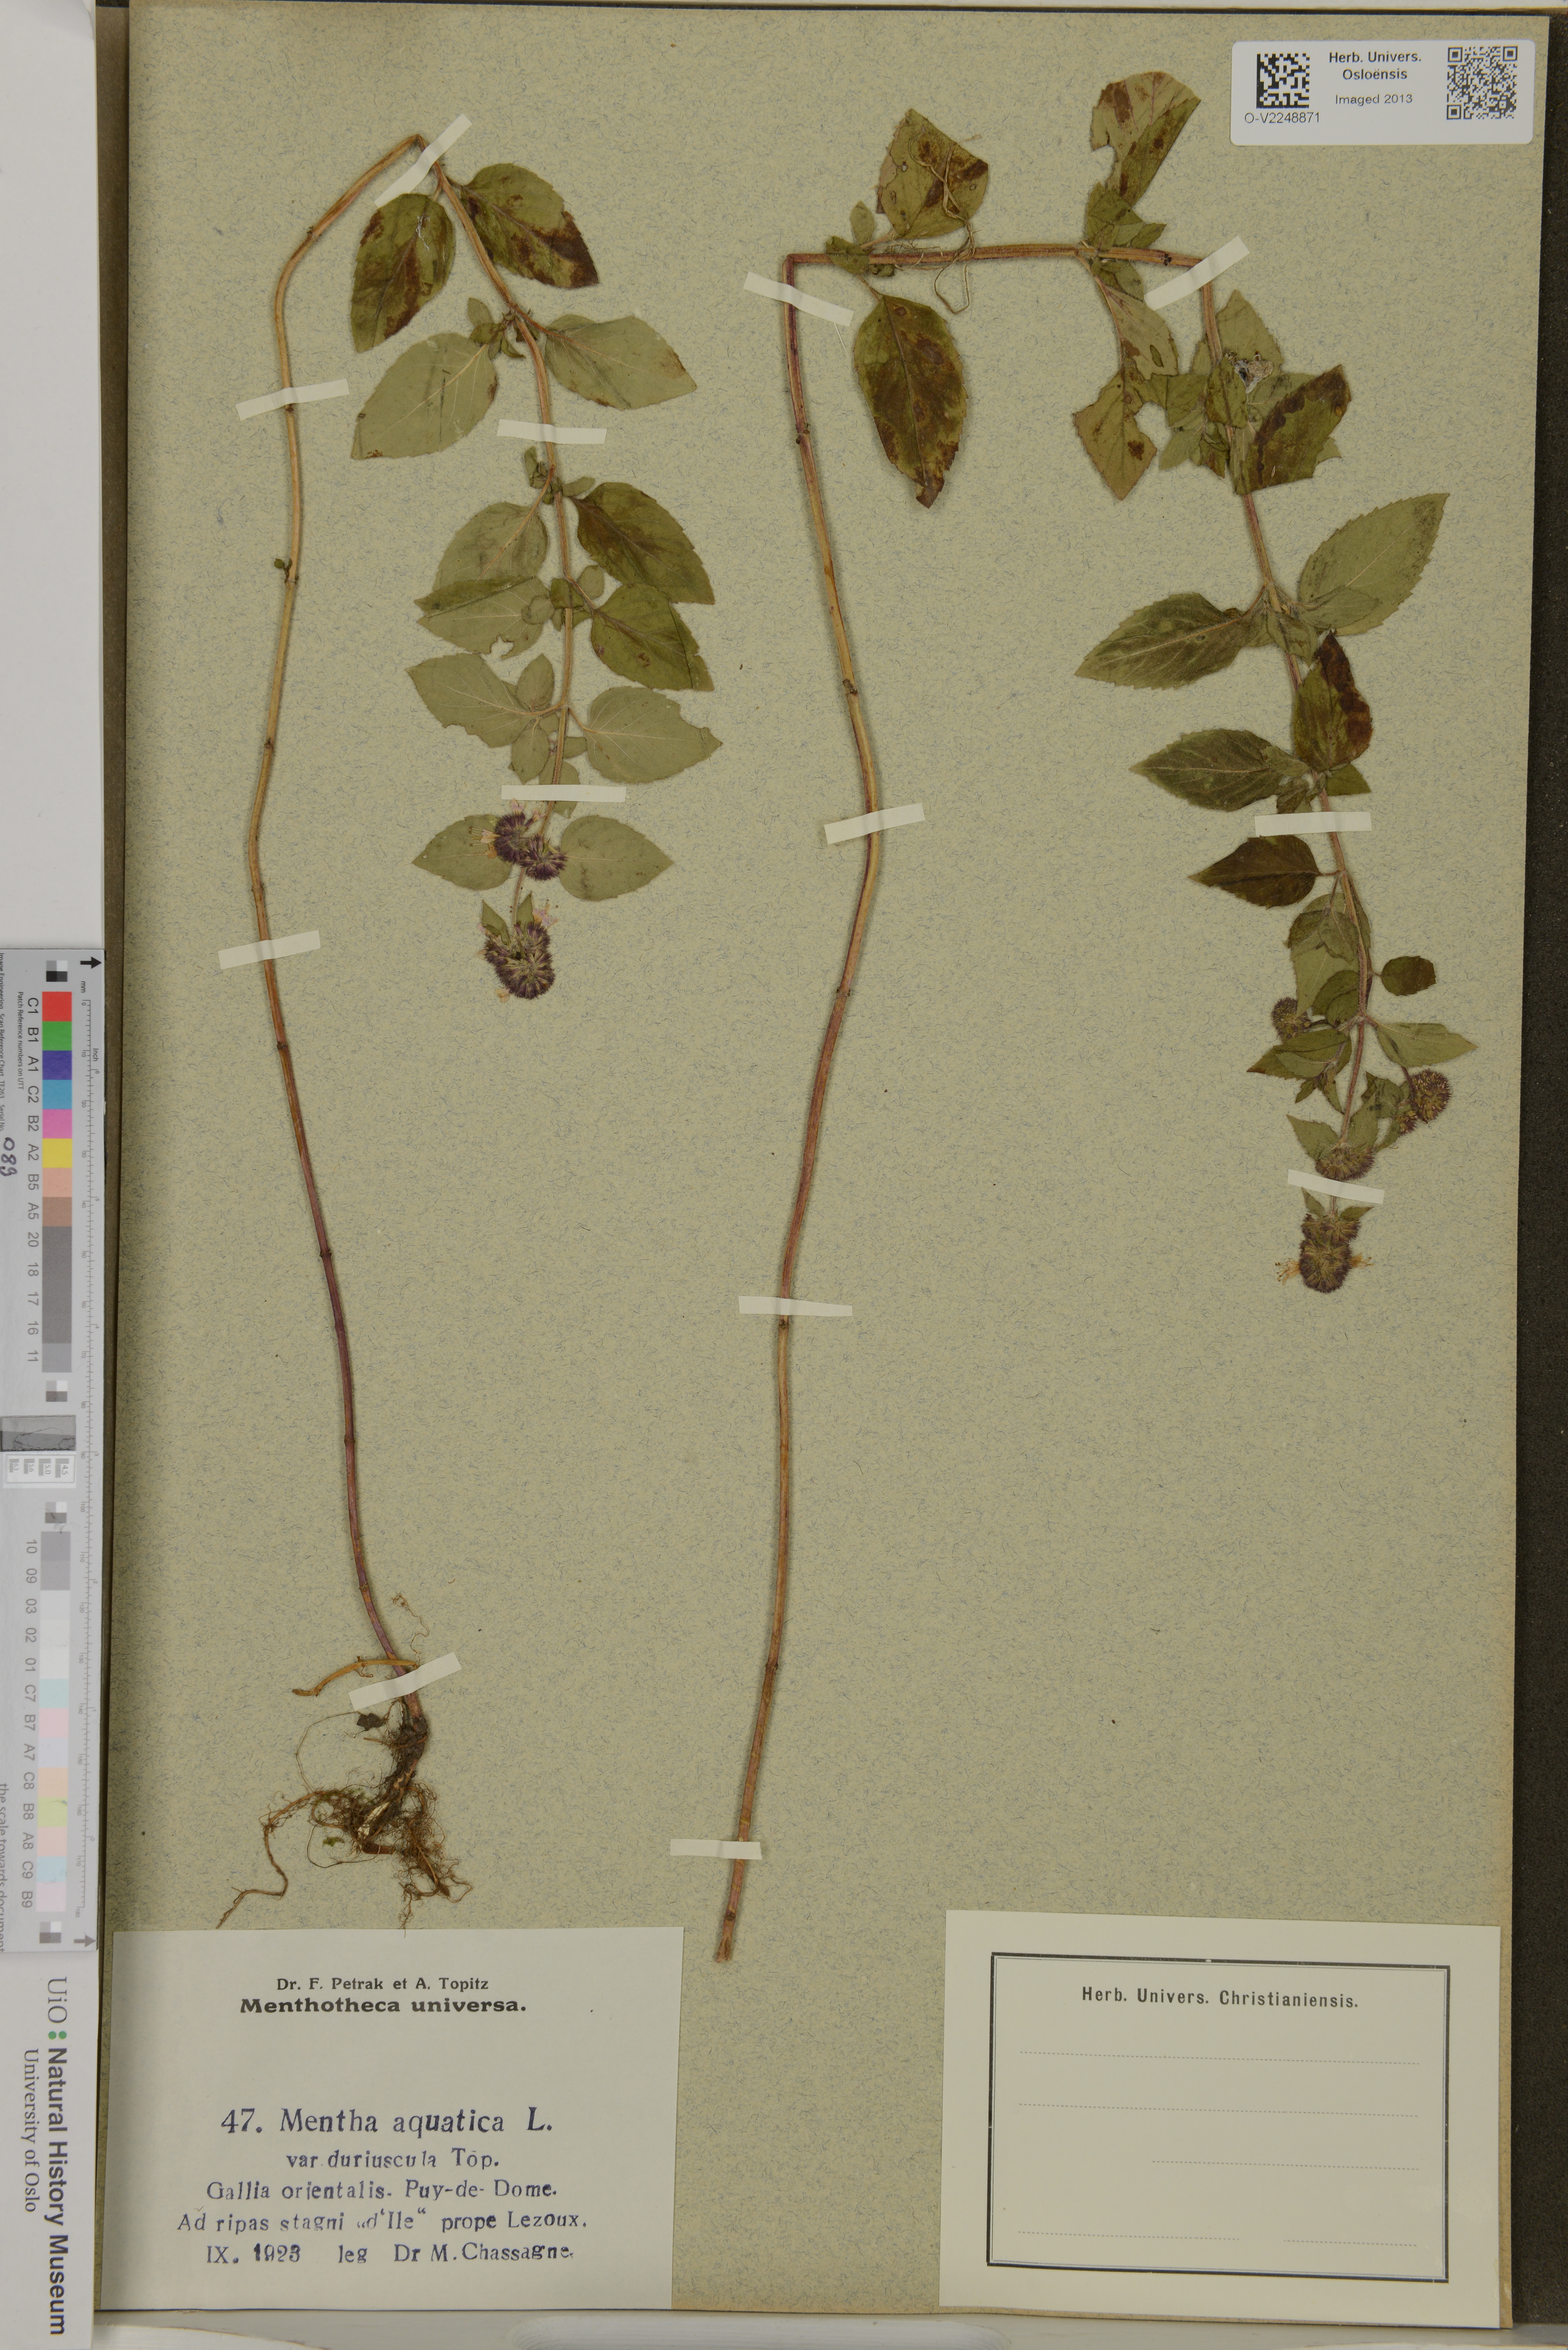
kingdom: Plantae
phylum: Tracheophyta
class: Magnoliopsida
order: Lamiales
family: Lamiaceae
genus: Mentha
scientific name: Mentha aquatica
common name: Water mint
